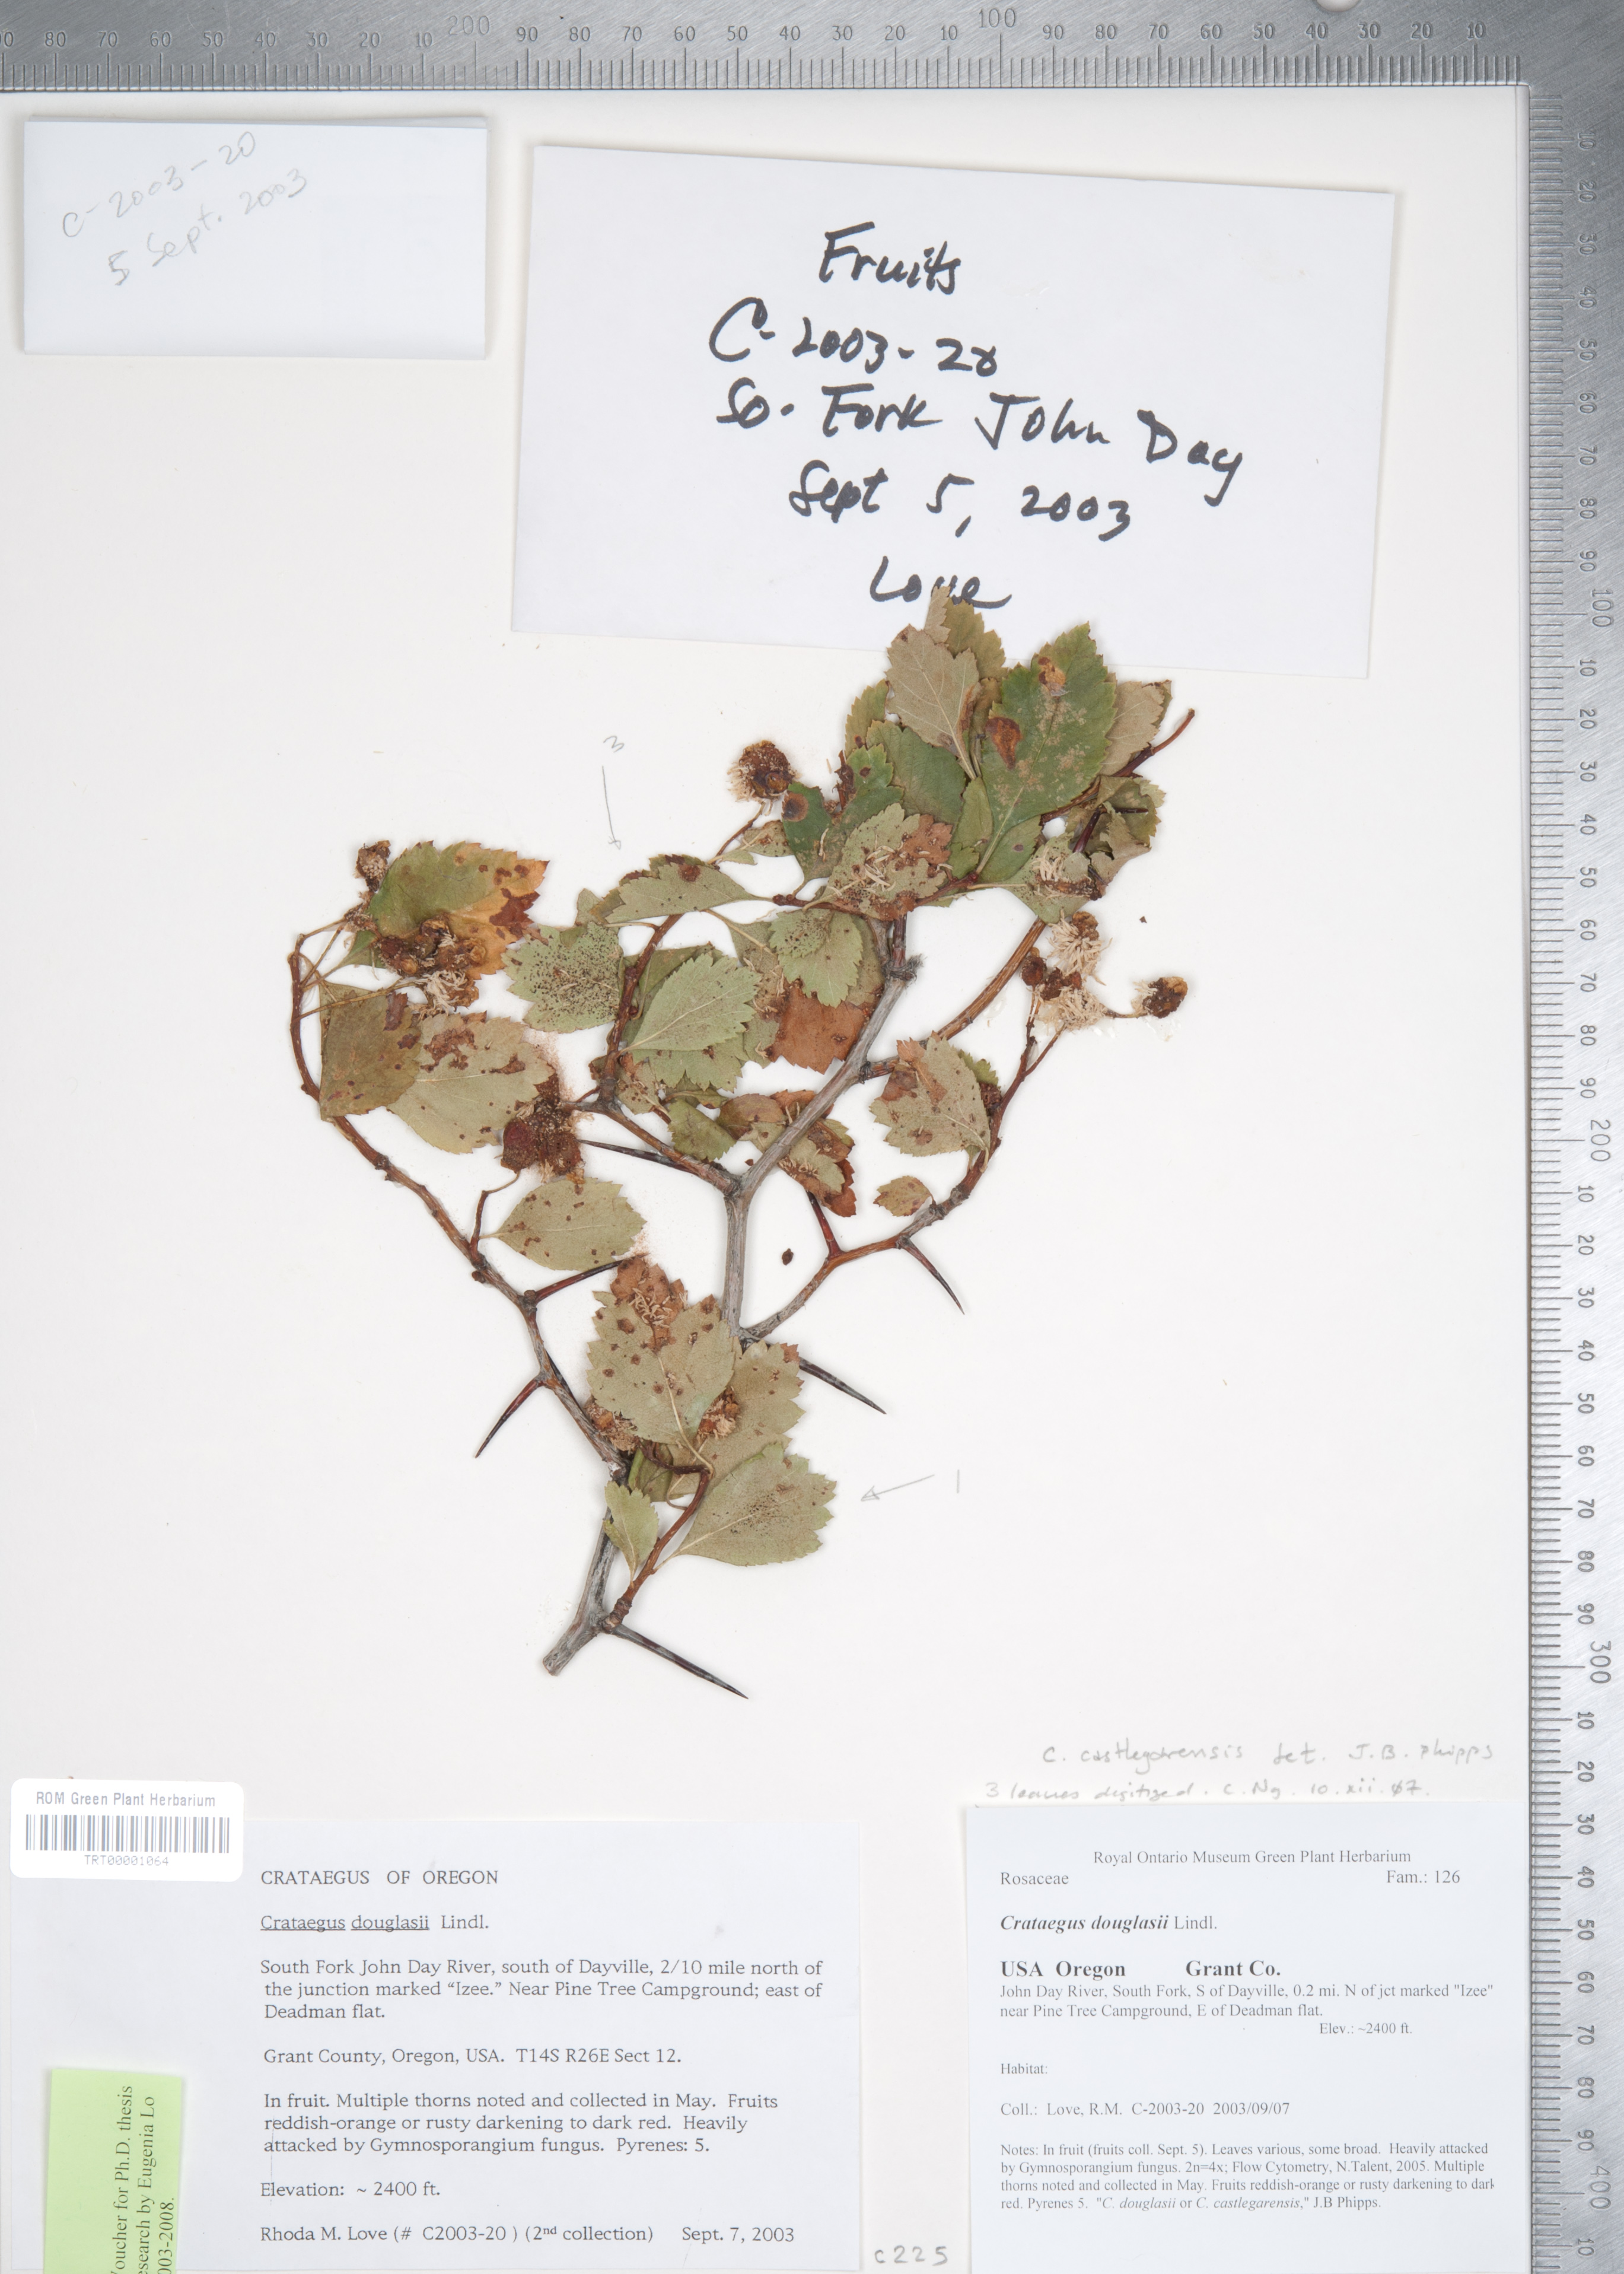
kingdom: Plantae
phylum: Tracheophyta
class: Magnoliopsida
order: Rosales
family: Rosaceae
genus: Crataegus
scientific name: Crataegus castlegarensis
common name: Castlegar hawthorn
